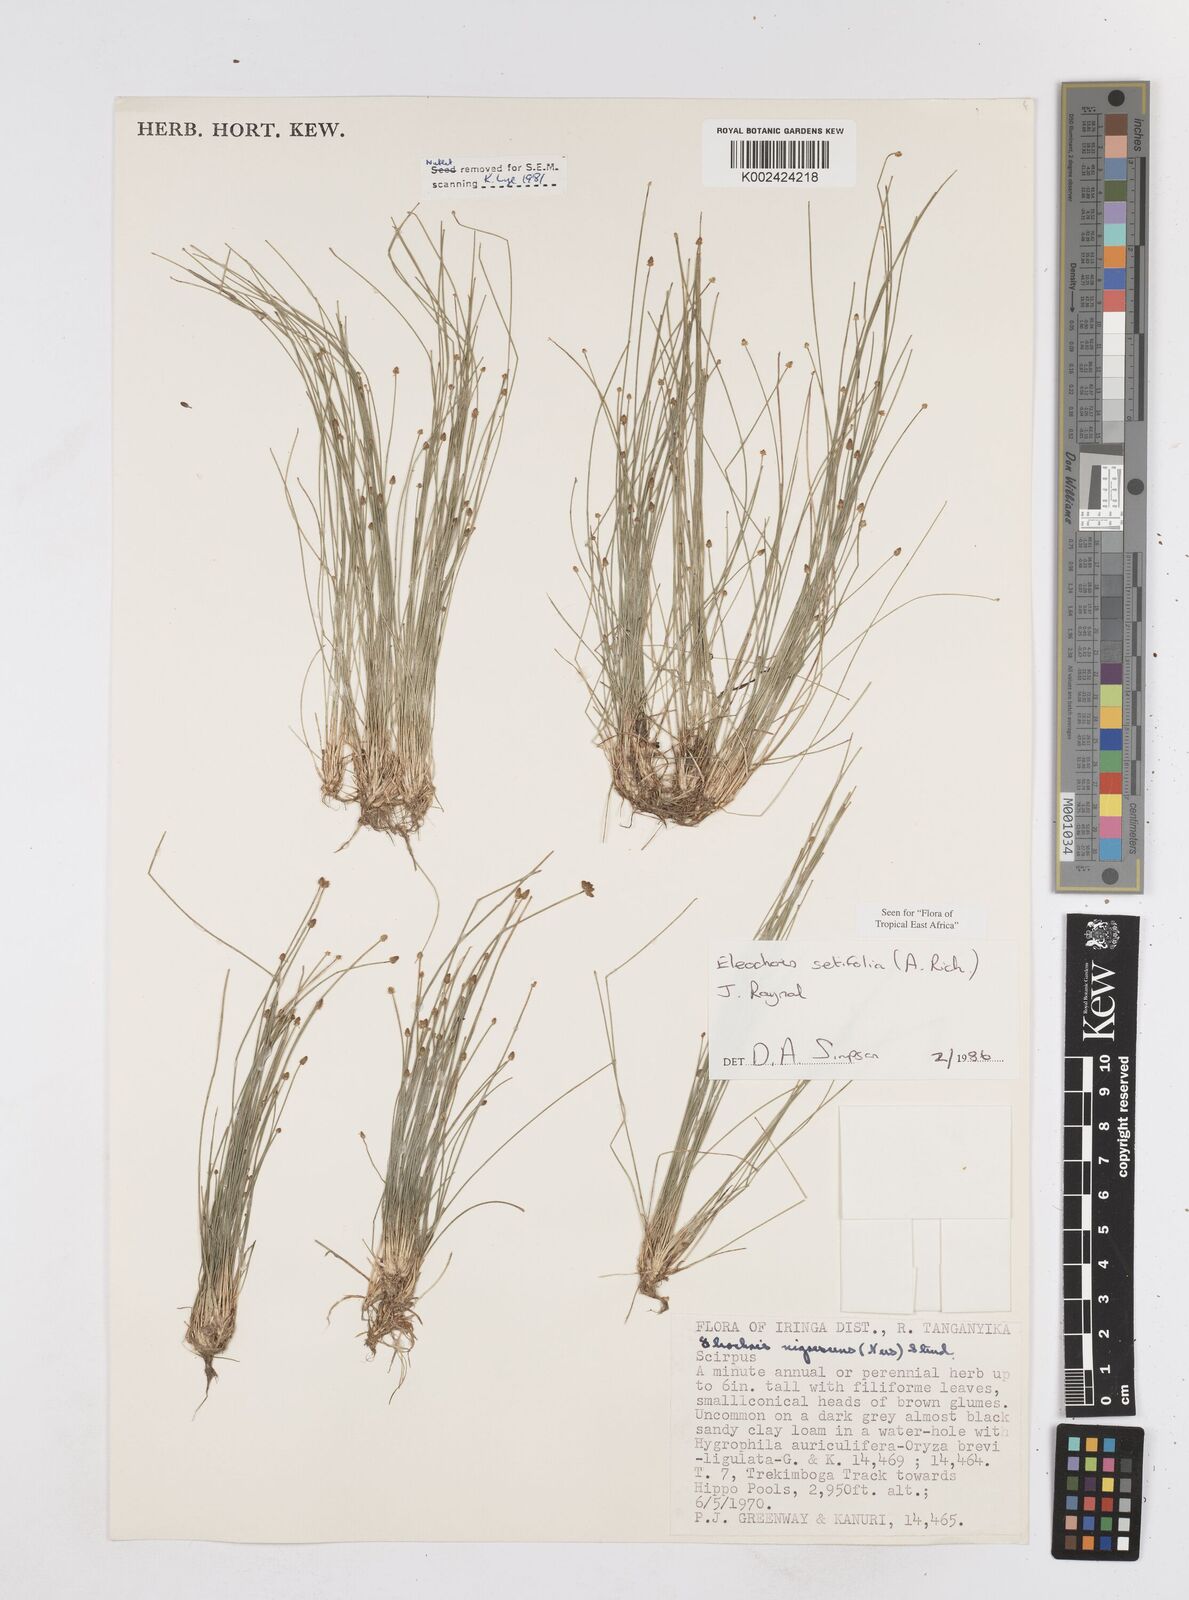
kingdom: Plantae
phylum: Tracheophyta
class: Liliopsida
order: Poales
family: Cyperaceae
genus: Eleocharis
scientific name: Eleocharis setifolia
